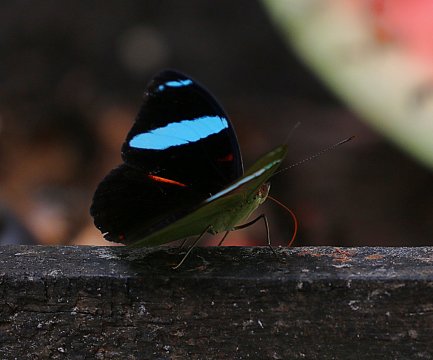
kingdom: Animalia
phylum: Arthropoda
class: Insecta
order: Lepidoptera
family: Nymphalidae
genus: Nessaea
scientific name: Nessaea aglaura
